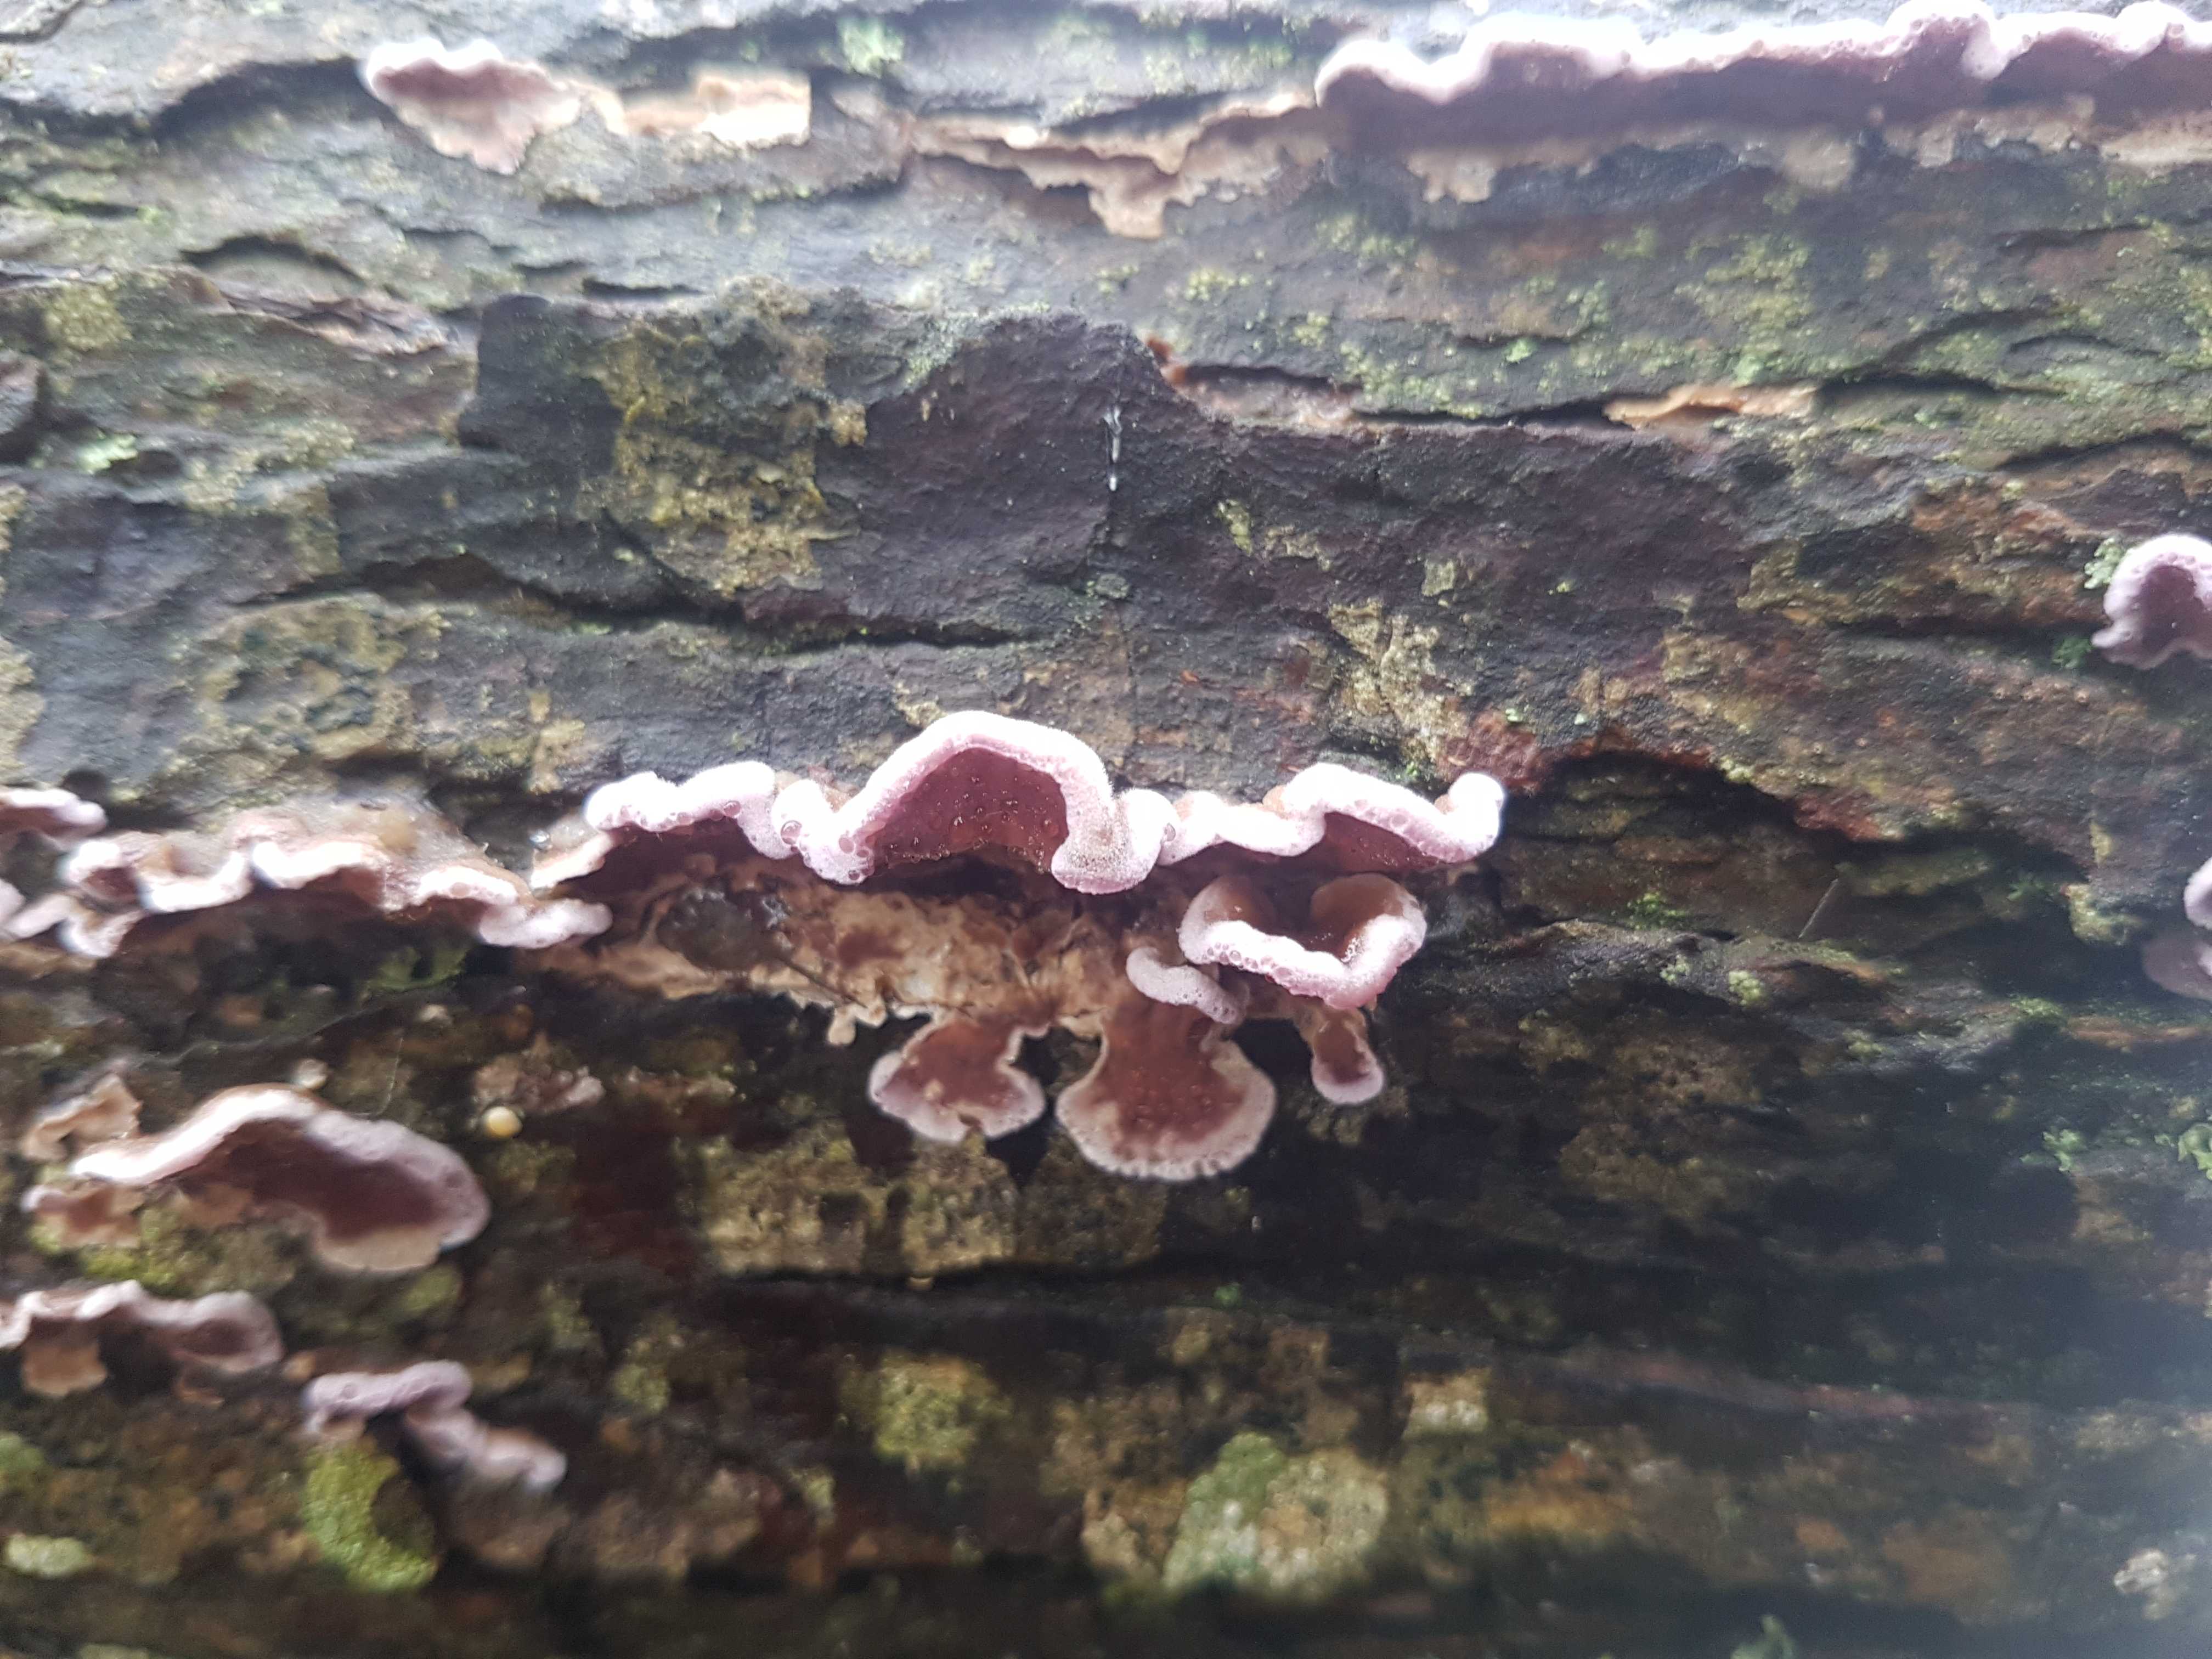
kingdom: Fungi
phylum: Basidiomycota
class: Agaricomycetes
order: Agaricales
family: Cyphellaceae
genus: Chondrostereum
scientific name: Chondrostereum purpureum
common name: purpurlædersvamp
